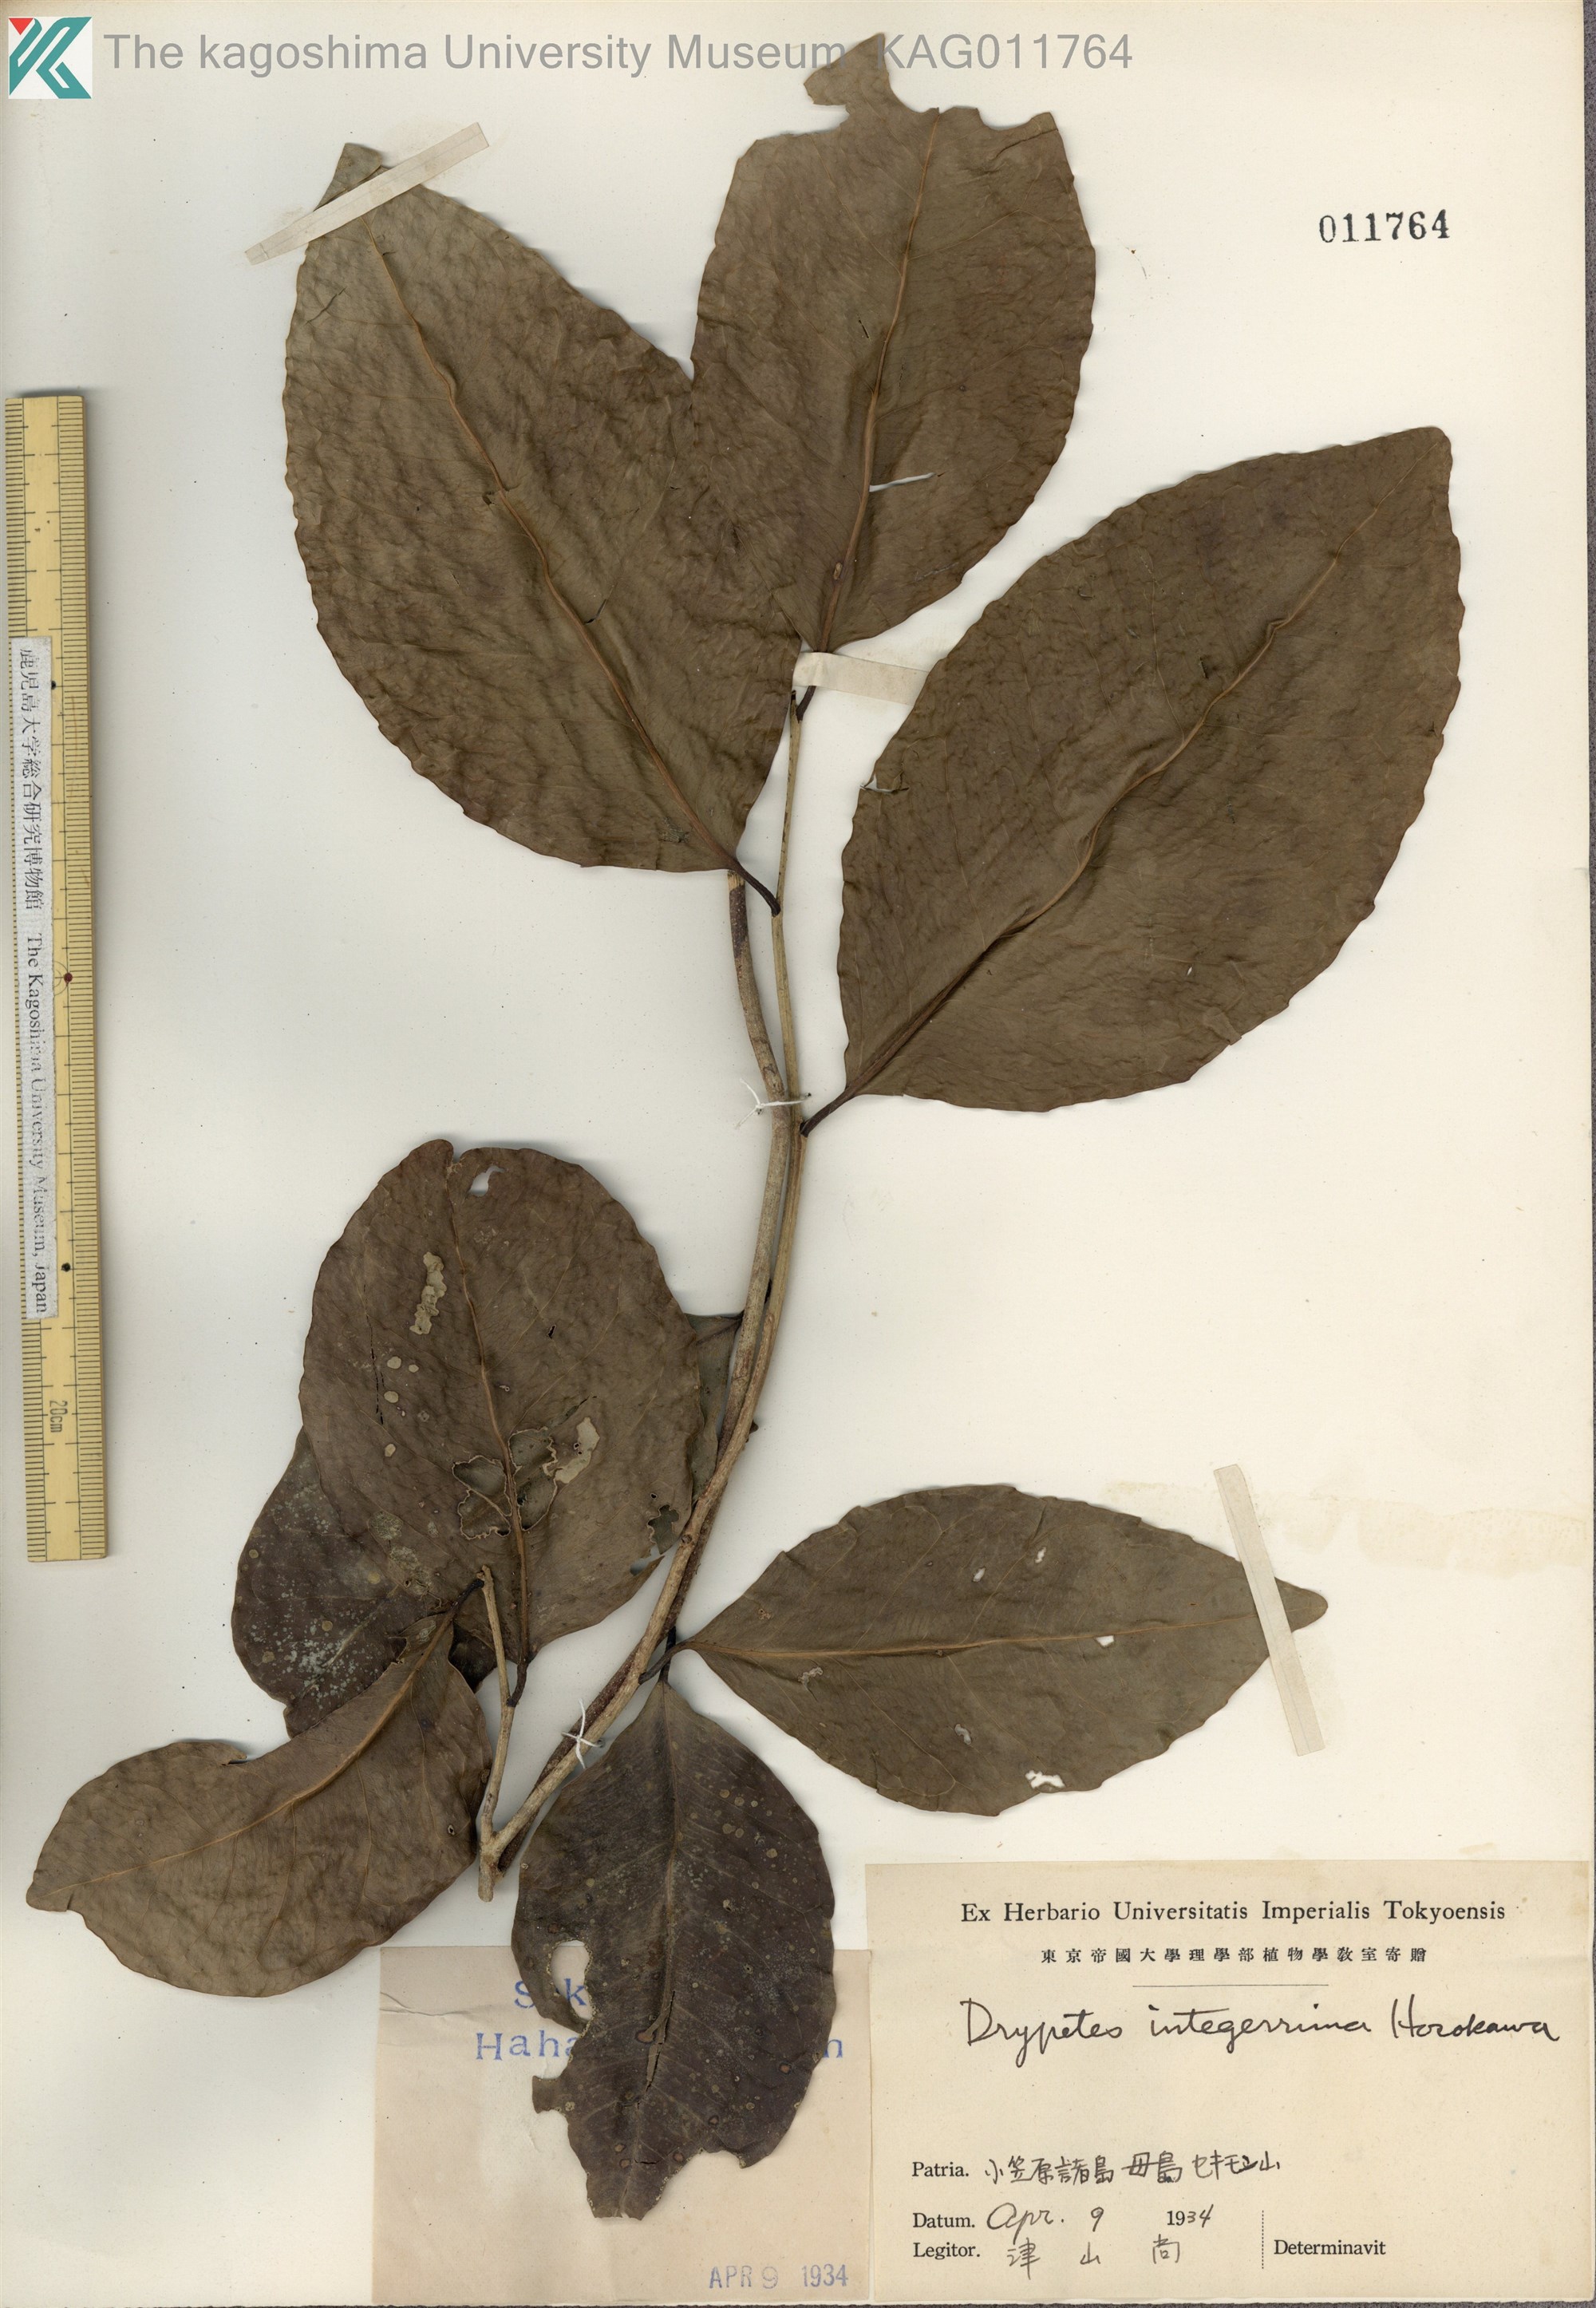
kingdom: Plantae
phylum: Tracheophyta
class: Magnoliopsida
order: Malpighiales
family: Putranjivaceae
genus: Drypetes
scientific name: Drypetes integerrima
